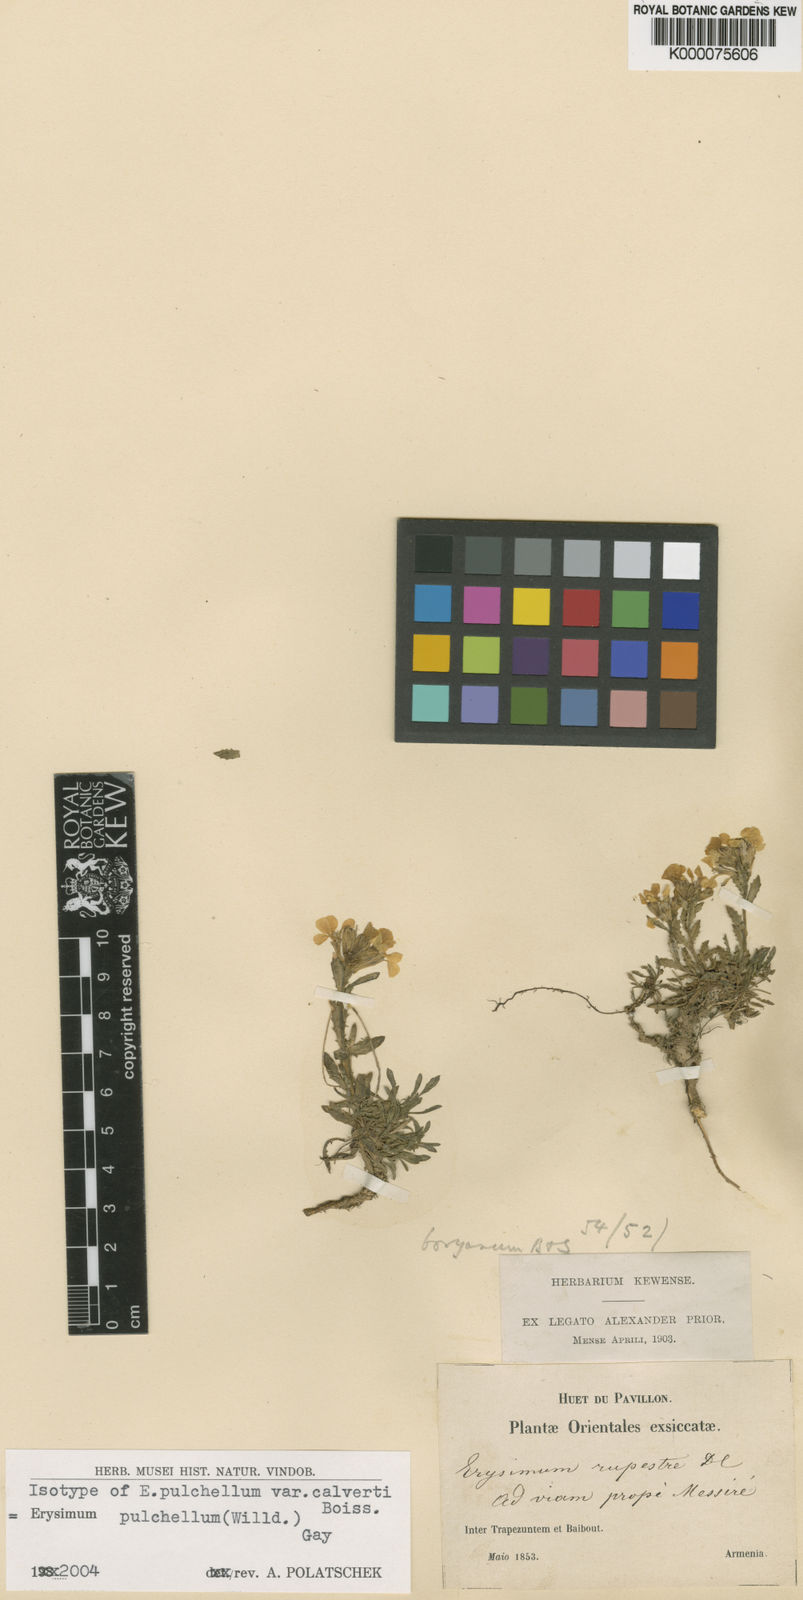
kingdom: Plantae
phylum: Tracheophyta
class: Magnoliopsida
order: Brassicales
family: Brassicaceae
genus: Erysimum
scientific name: Erysimum pulchellum
